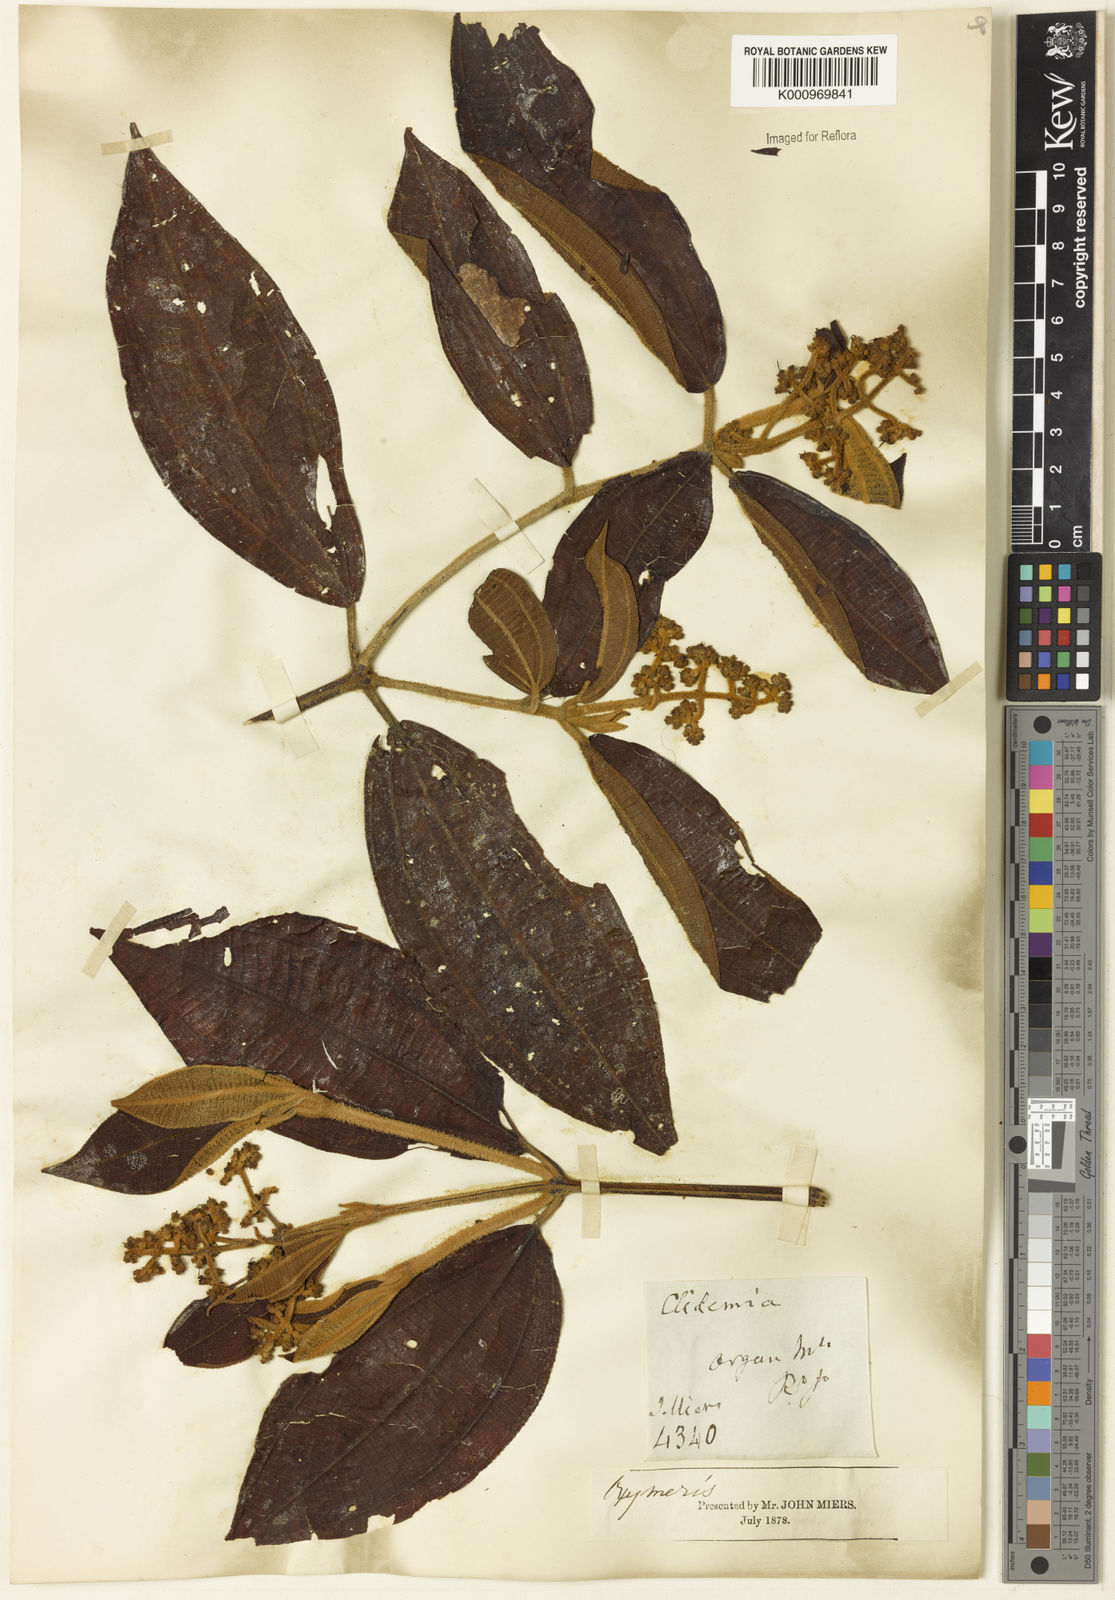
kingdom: Plantae
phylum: Tracheophyta
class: Magnoliopsida
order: Myrtales
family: Melastomataceae
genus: Miconia
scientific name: Miconia
